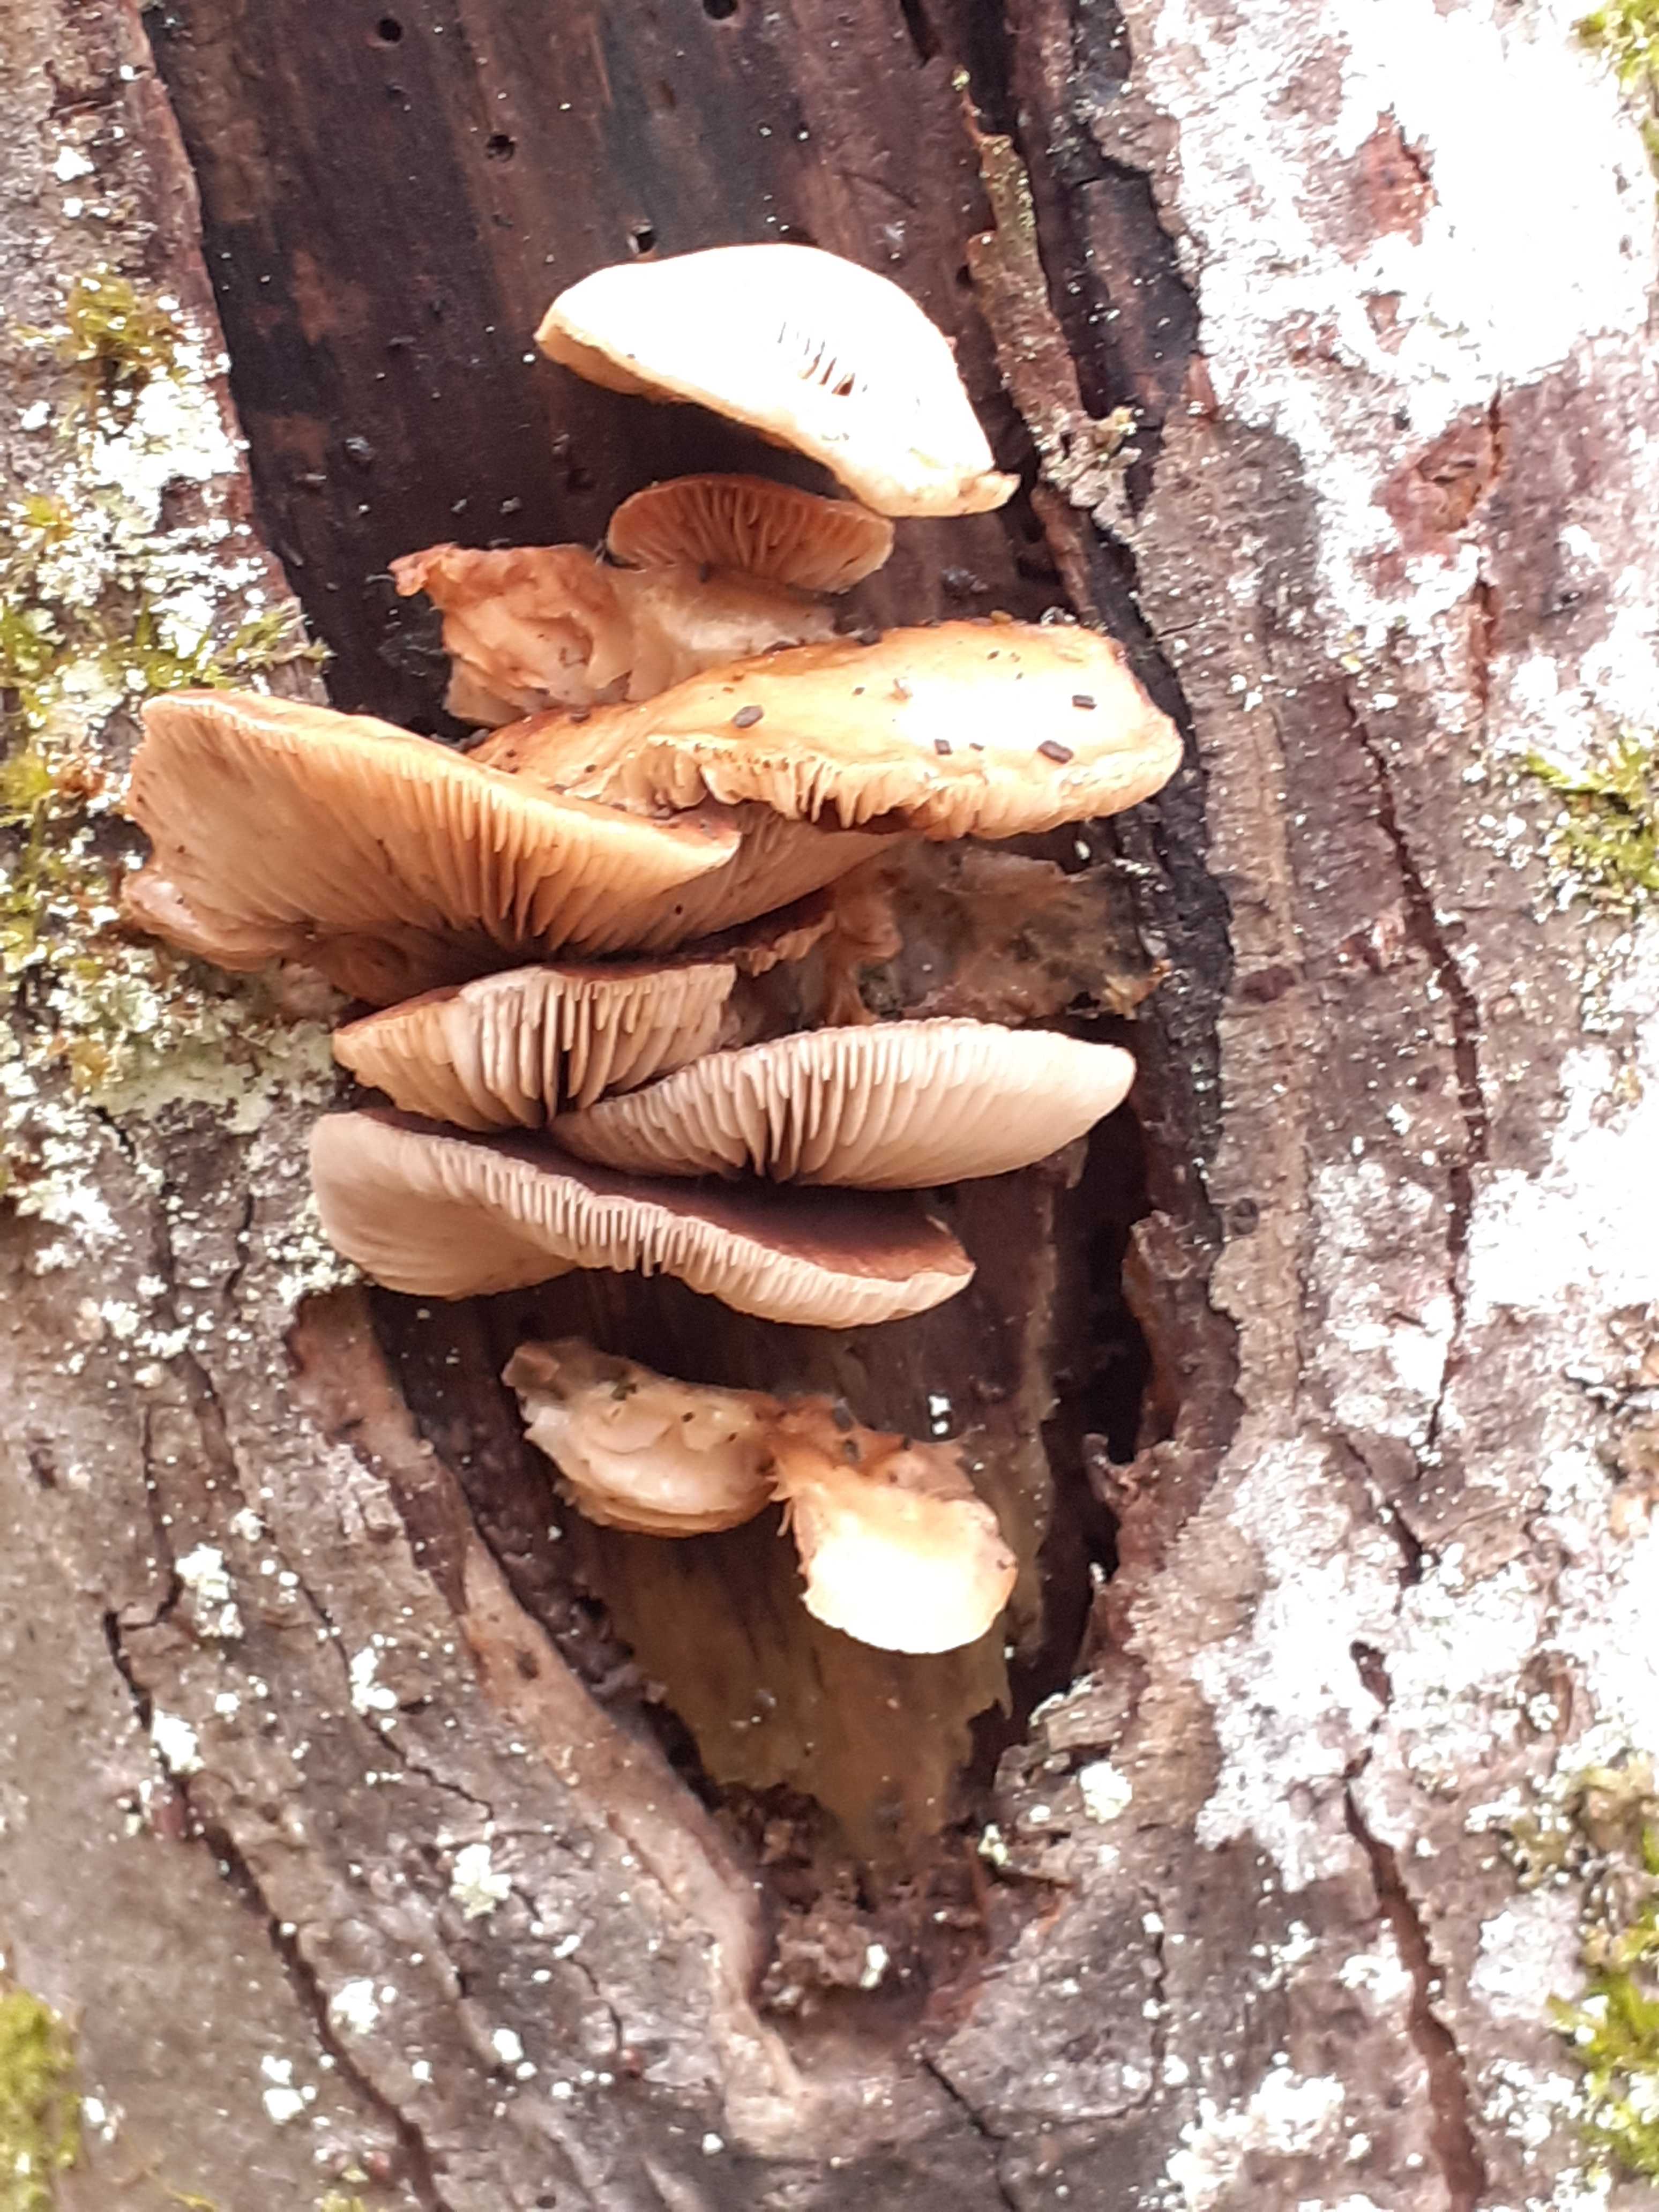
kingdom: Fungi
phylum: Basidiomycota
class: Agaricomycetes
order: Agaricales
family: Crepidotaceae
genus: Crepidotus
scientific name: Crepidotus mollis
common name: blød muslingesvamp
